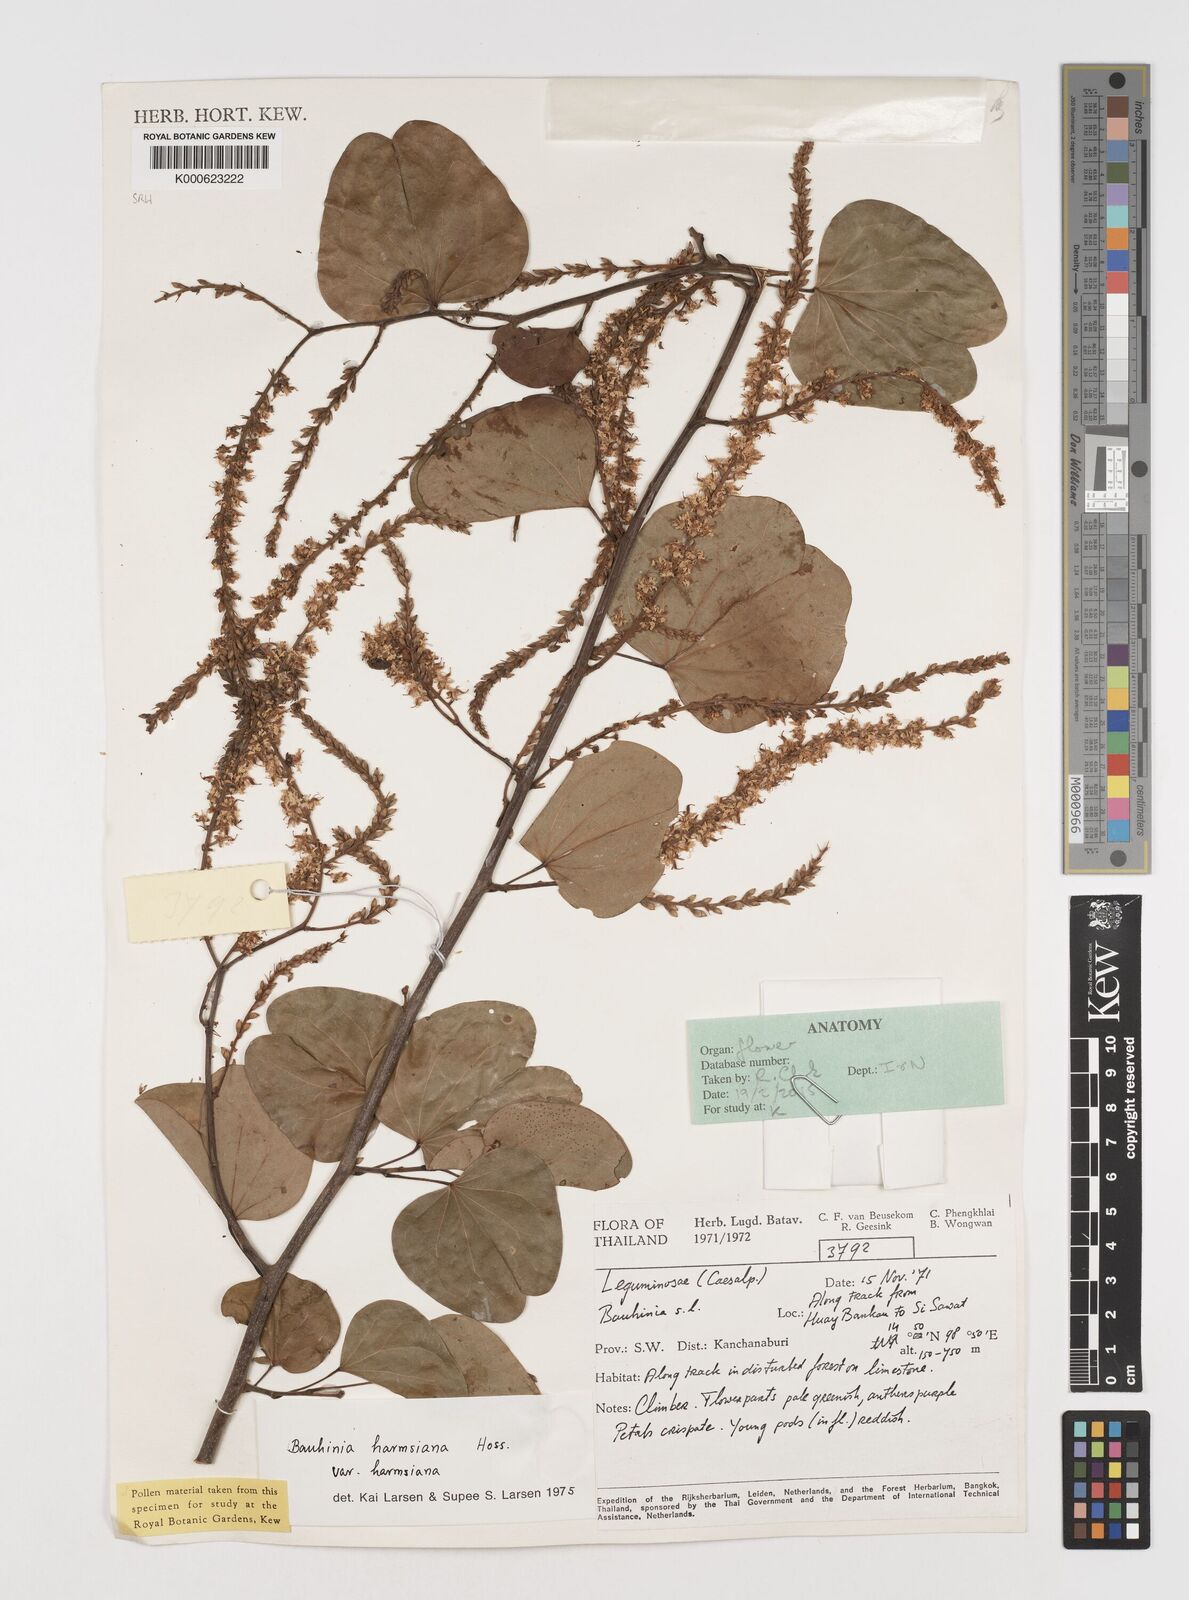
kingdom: Plantae
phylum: Tracheophyta
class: Magnoliopsida
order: Fabales
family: Fabaceae
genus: Bauhinia
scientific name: Bauhinia
